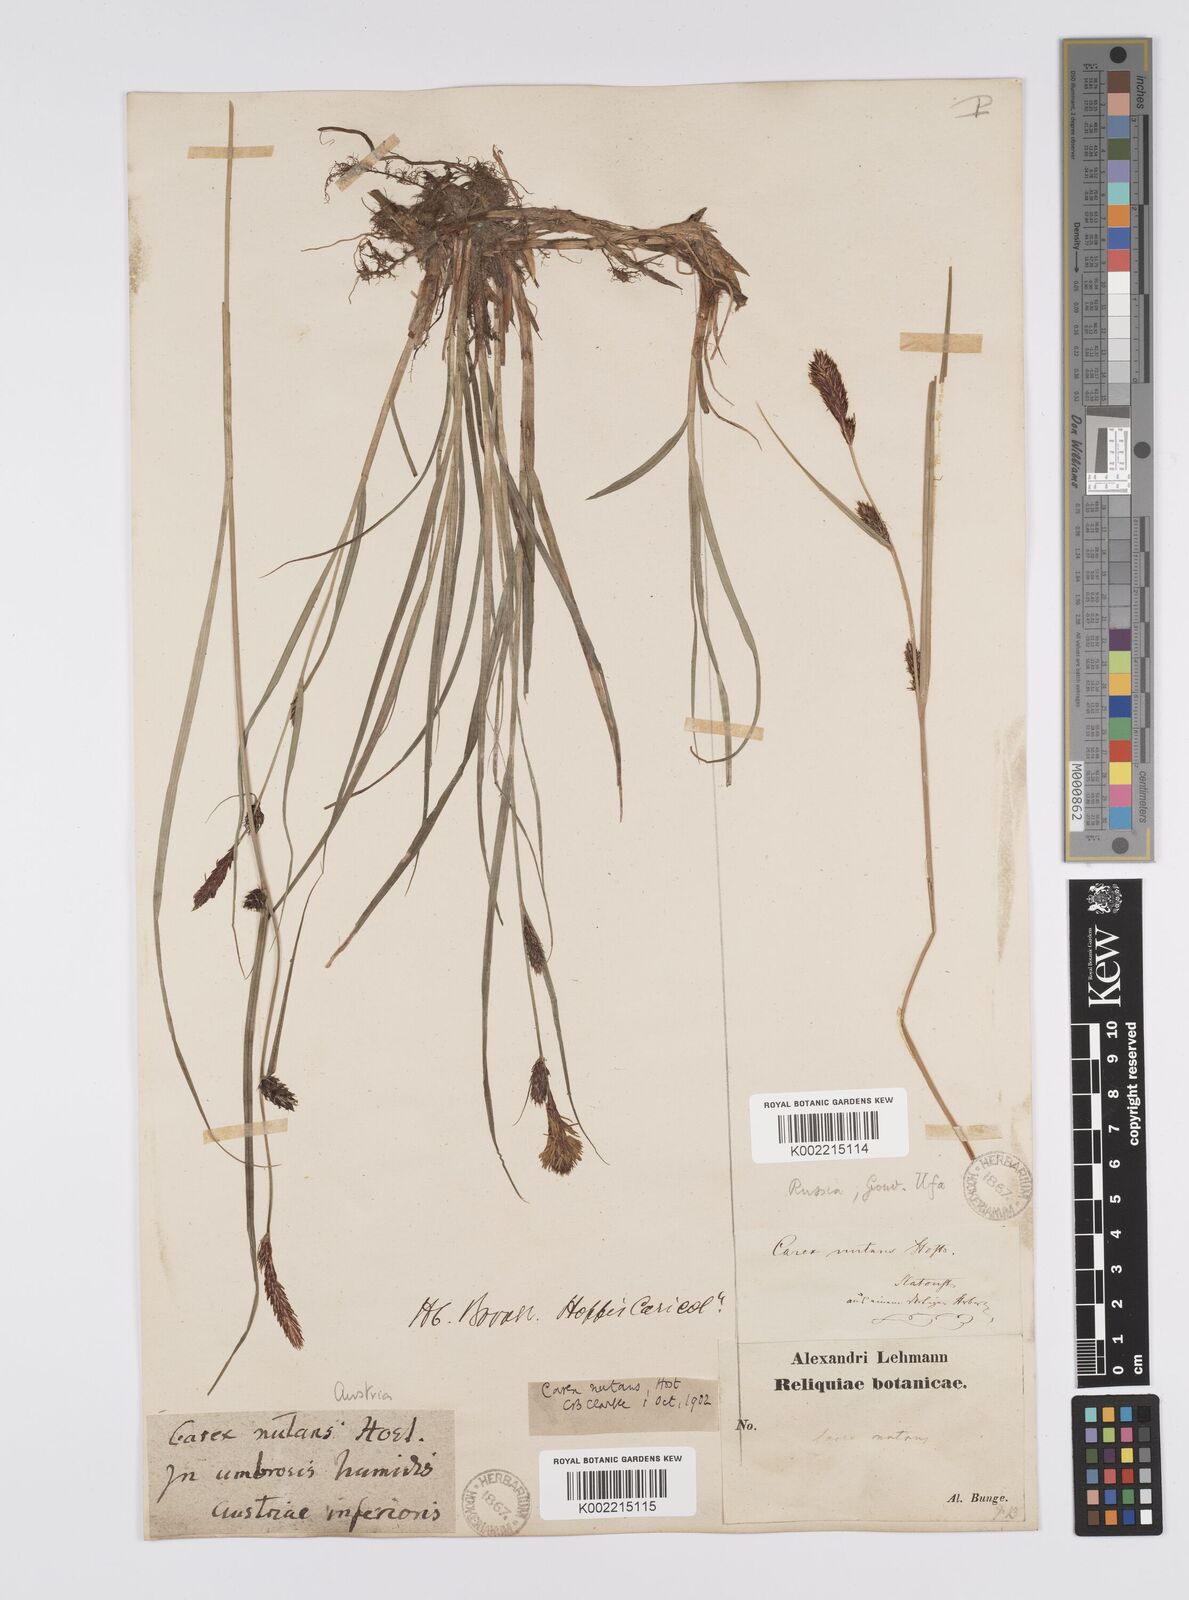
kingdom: Plantae
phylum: Tracheophyta
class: Liliopsida
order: Poales
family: Cyperaceae
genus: Carex
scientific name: Carex melanostachya
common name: Black-spiked sedge
